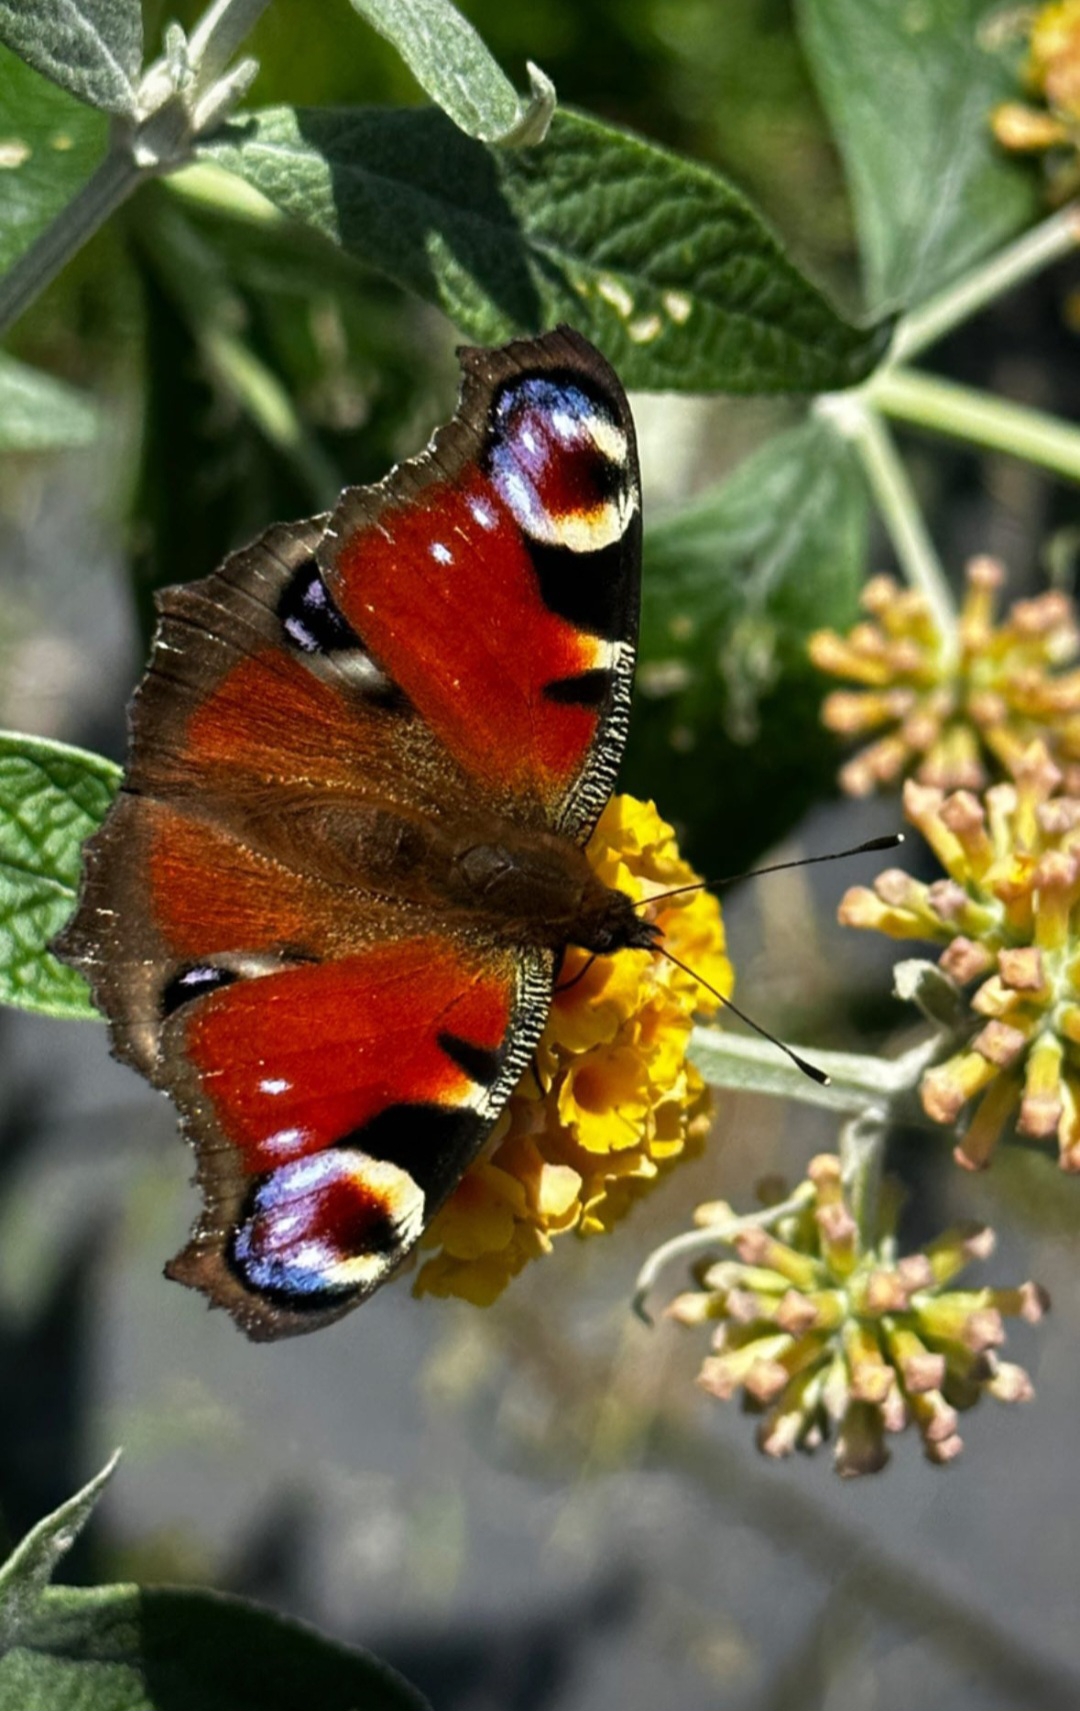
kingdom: Animalia
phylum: Arthropoda
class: Insecta
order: Lepidoptera
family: Nymphalidae
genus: Aglais
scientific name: Aglais io
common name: Dagpåfugleøje
